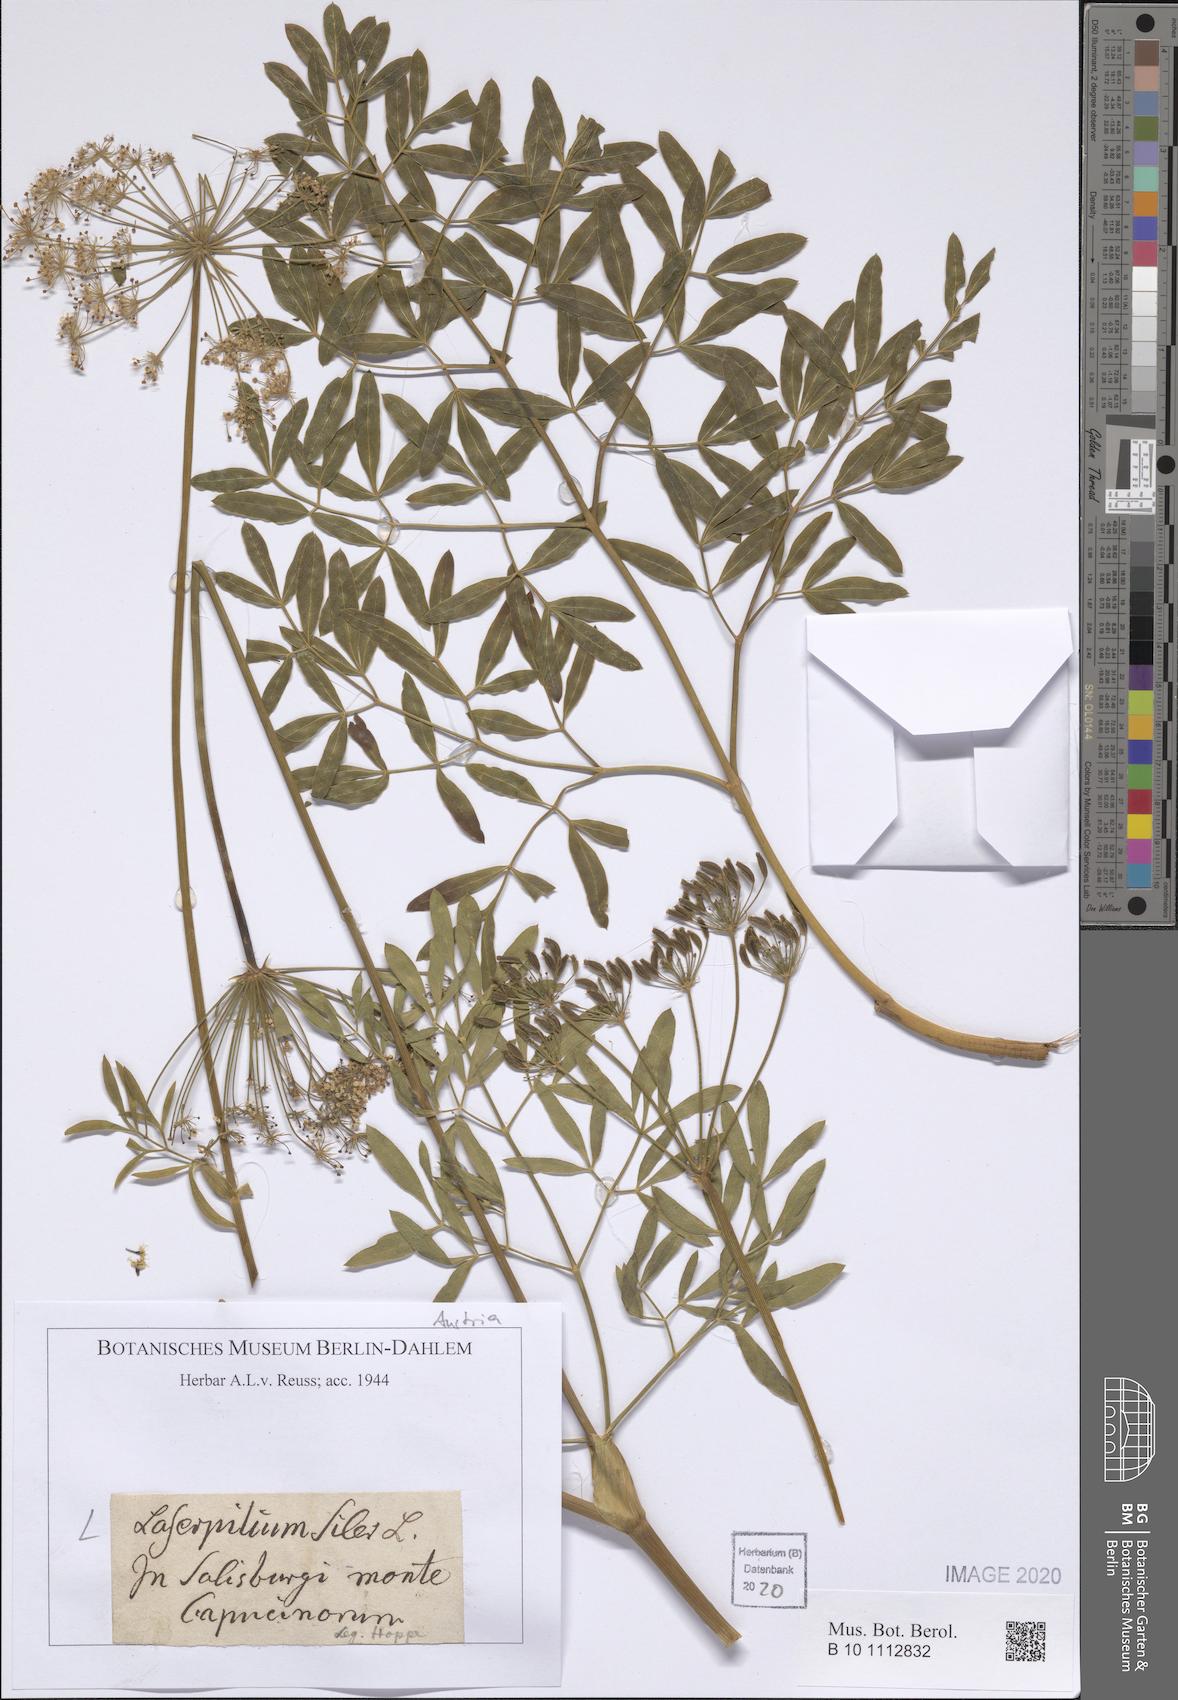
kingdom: Plantae
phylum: Tracheophyta
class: Magnoliopsida
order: Apiales
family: Apiaceae
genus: Siler
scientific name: Siler montanum
